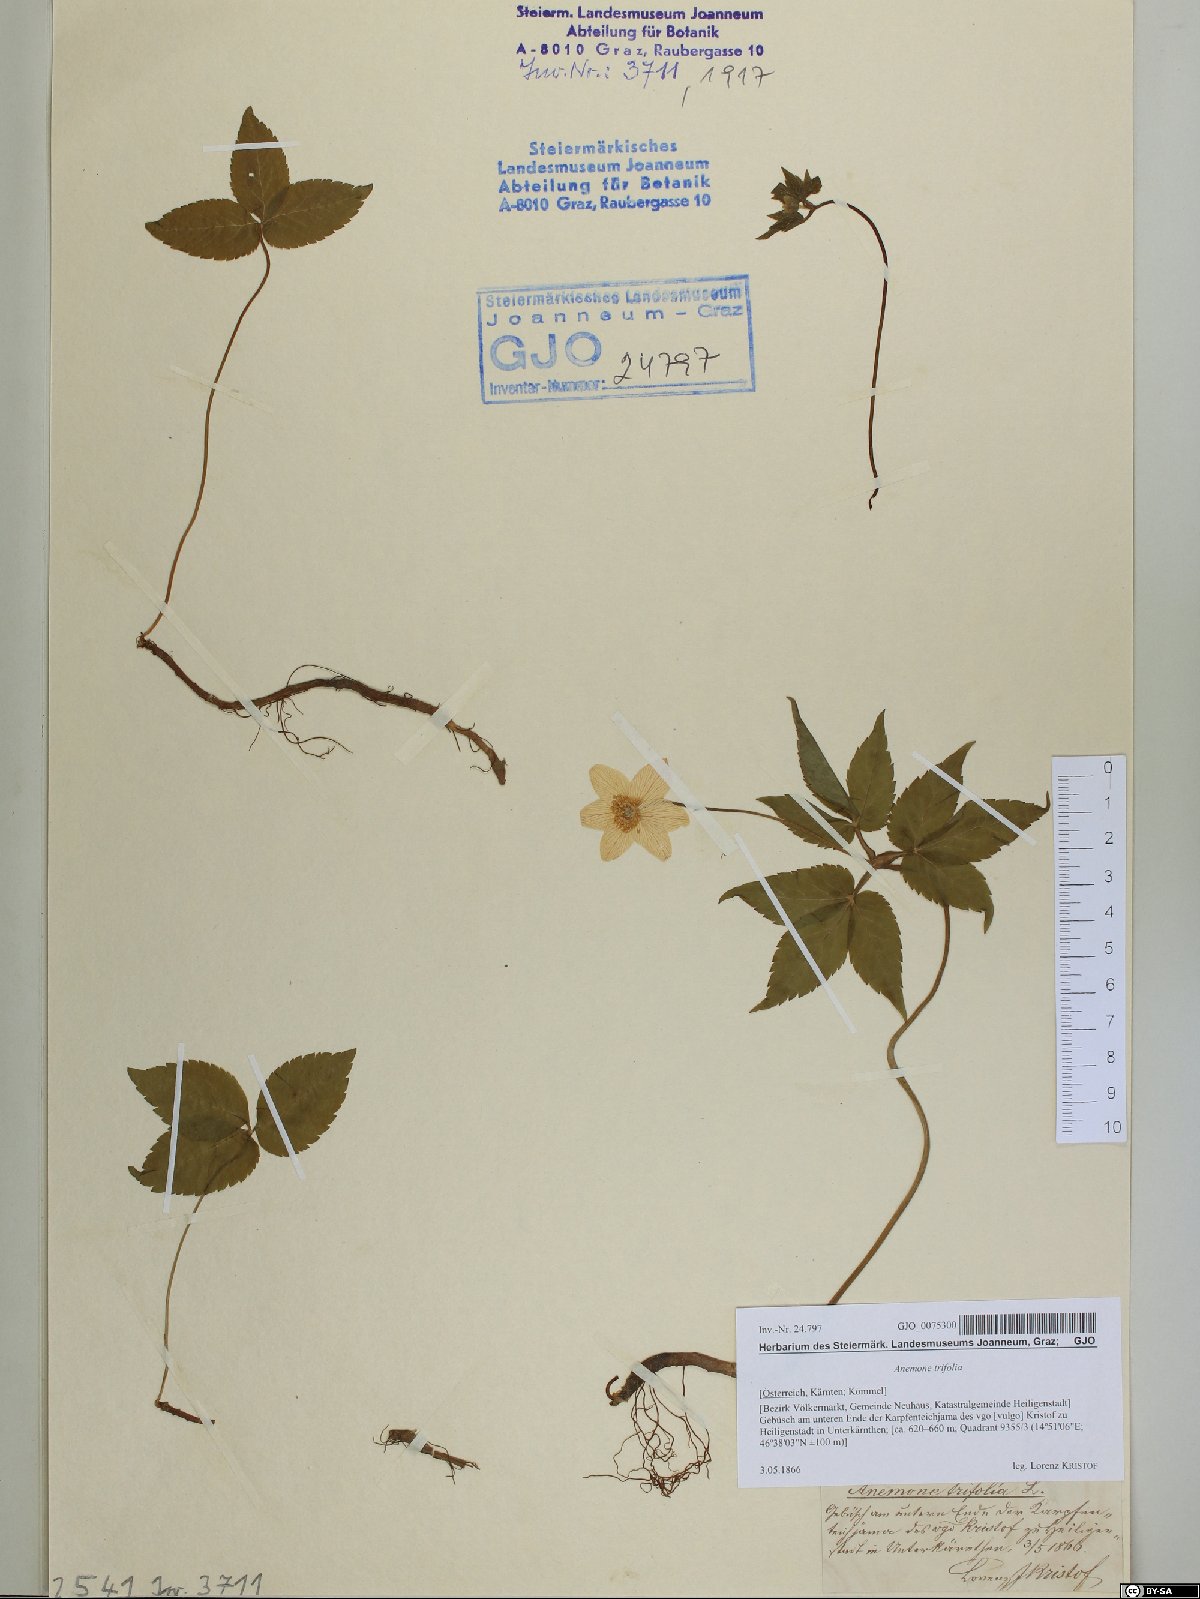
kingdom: Plantae
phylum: Tracheophyta
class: Magnoliopsida
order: Ranunculales
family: Ranunculaceae
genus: Anemone
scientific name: Anemone trifolia
